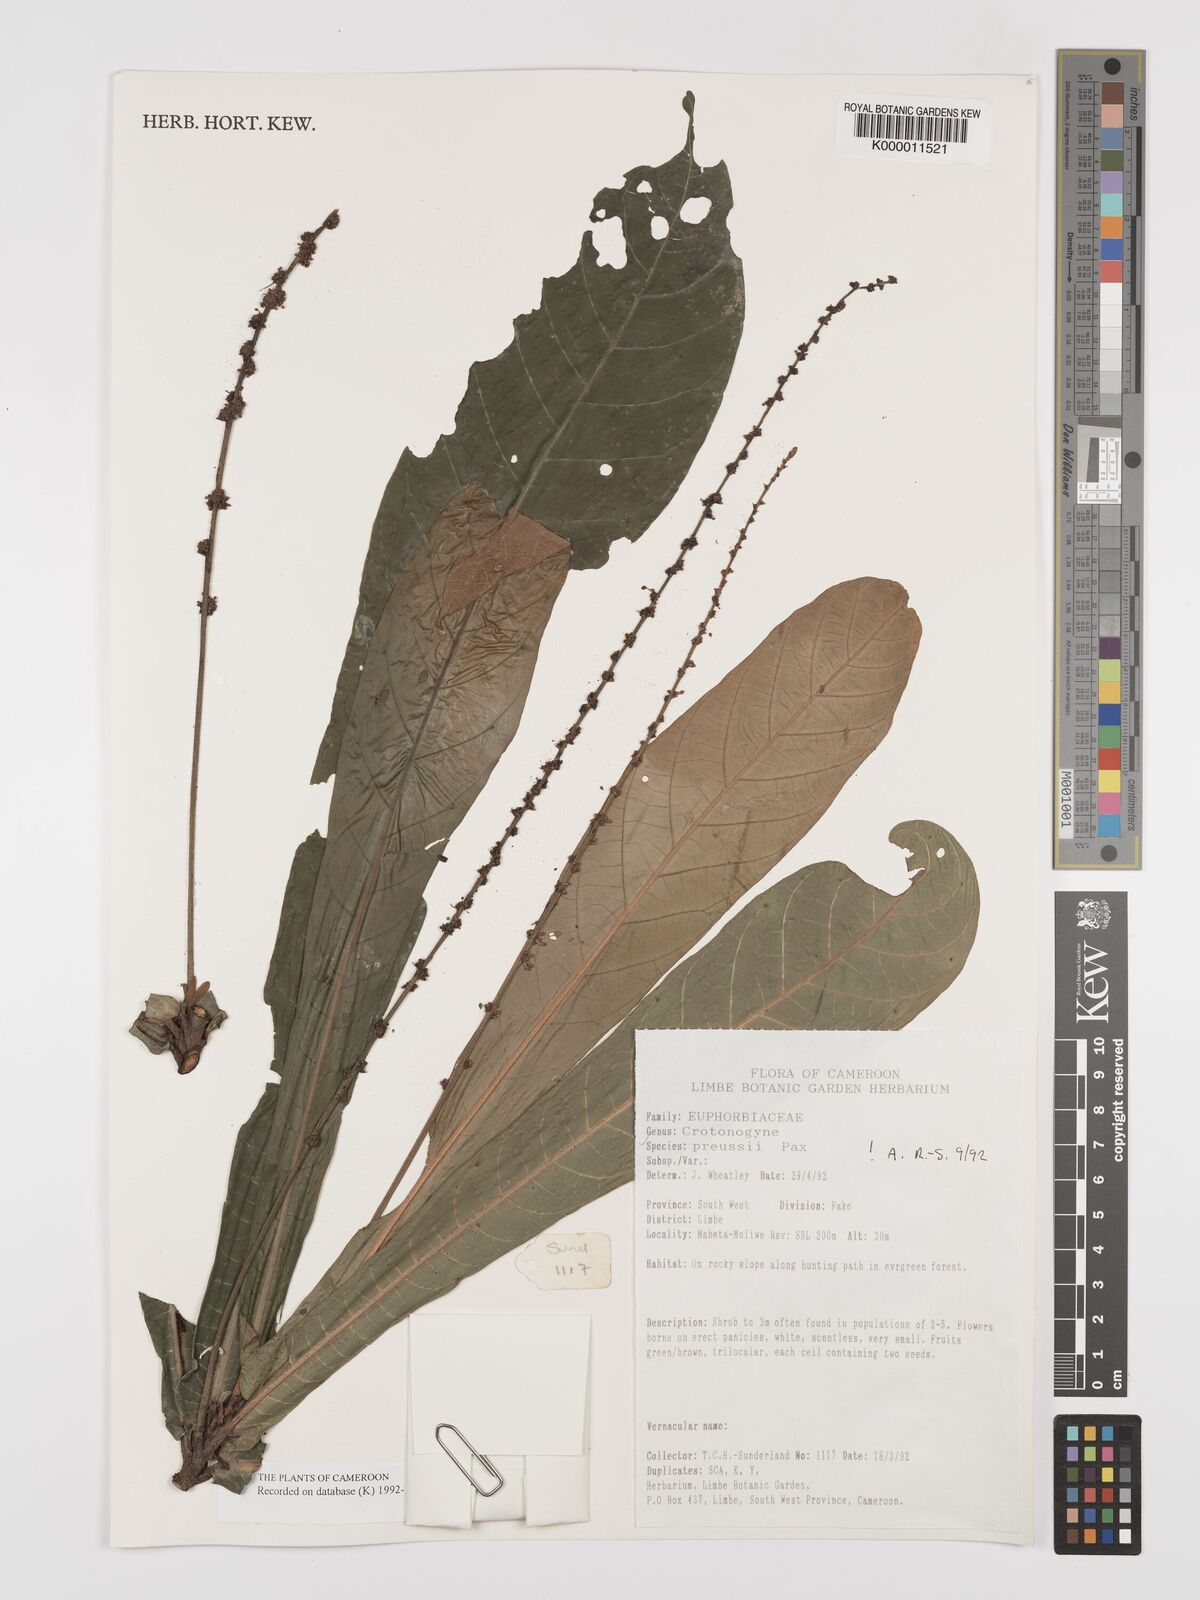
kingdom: Plantae
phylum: Tracheophyta
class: Magnoliopsida
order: Malpighiales
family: Euphorbiaceae
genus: Crotonogyne
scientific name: Crotonogyne preussii
